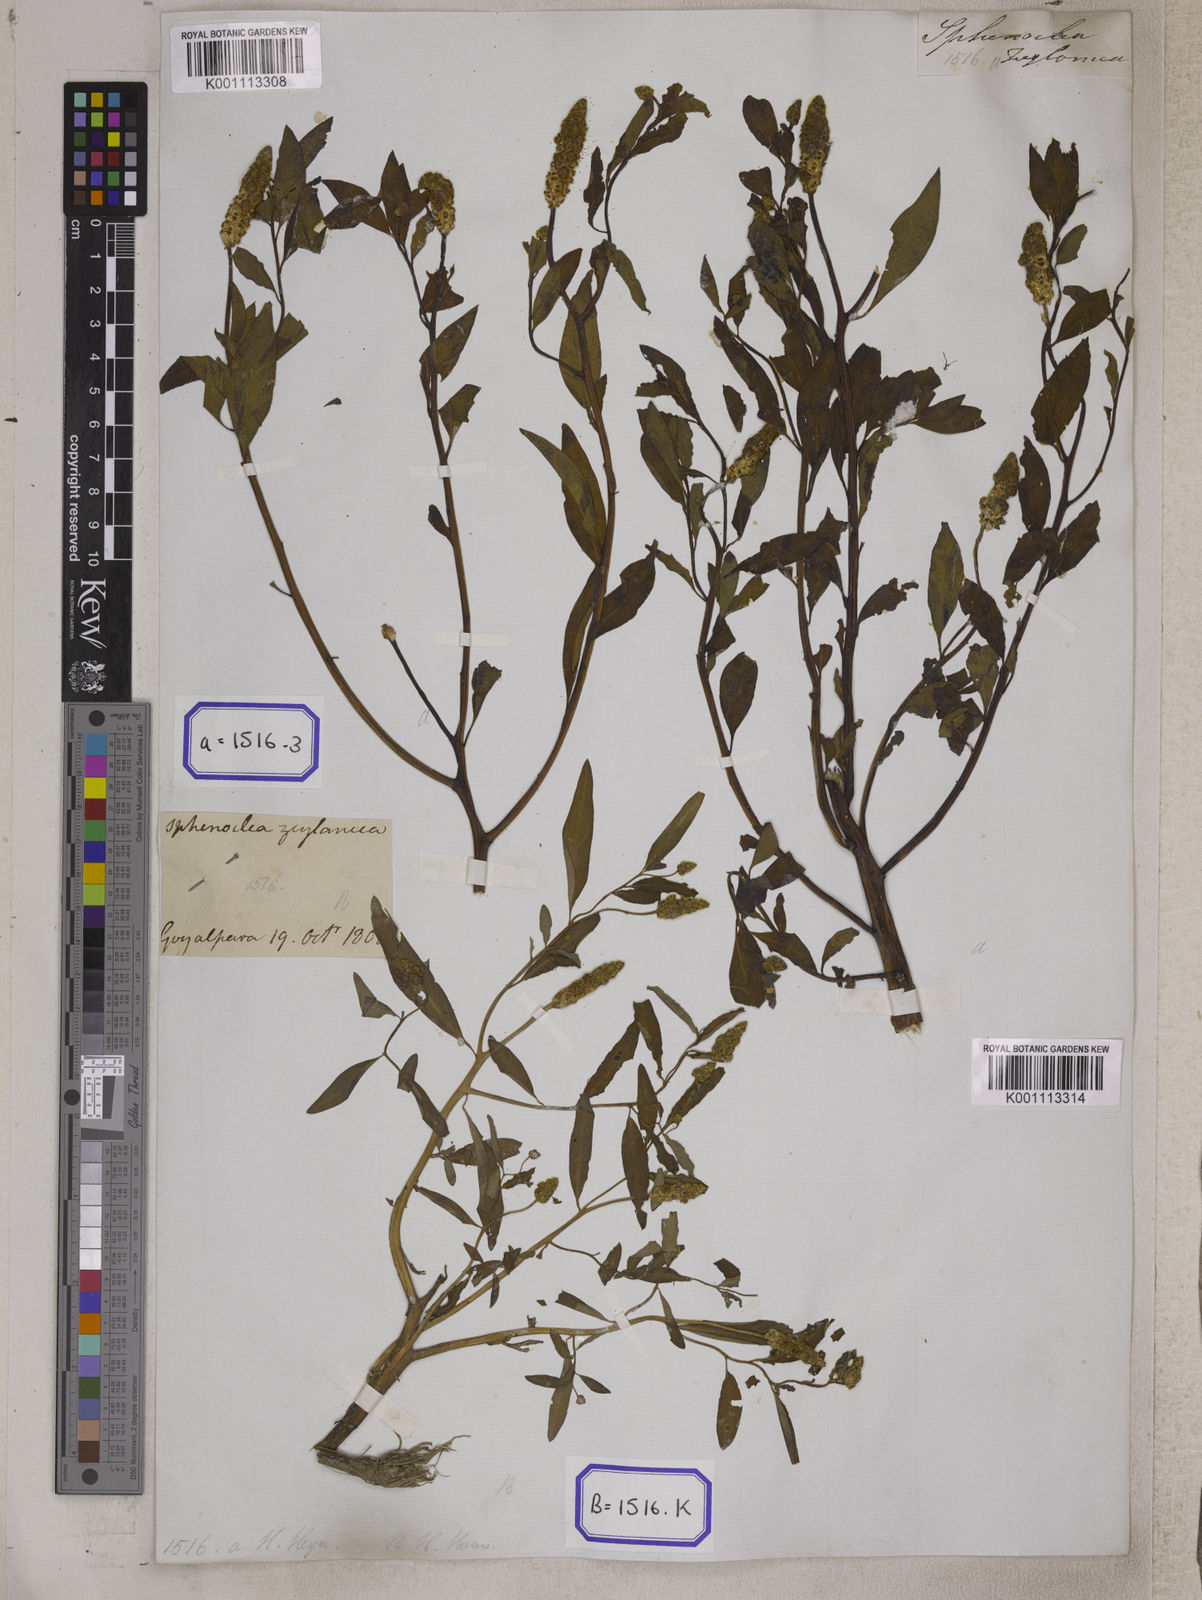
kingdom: Plantae
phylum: Tracheophyta
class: Magnoliopsida
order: Solanales
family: Sphenocleaceae
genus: Sphenoclea
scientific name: Sphenoclea
